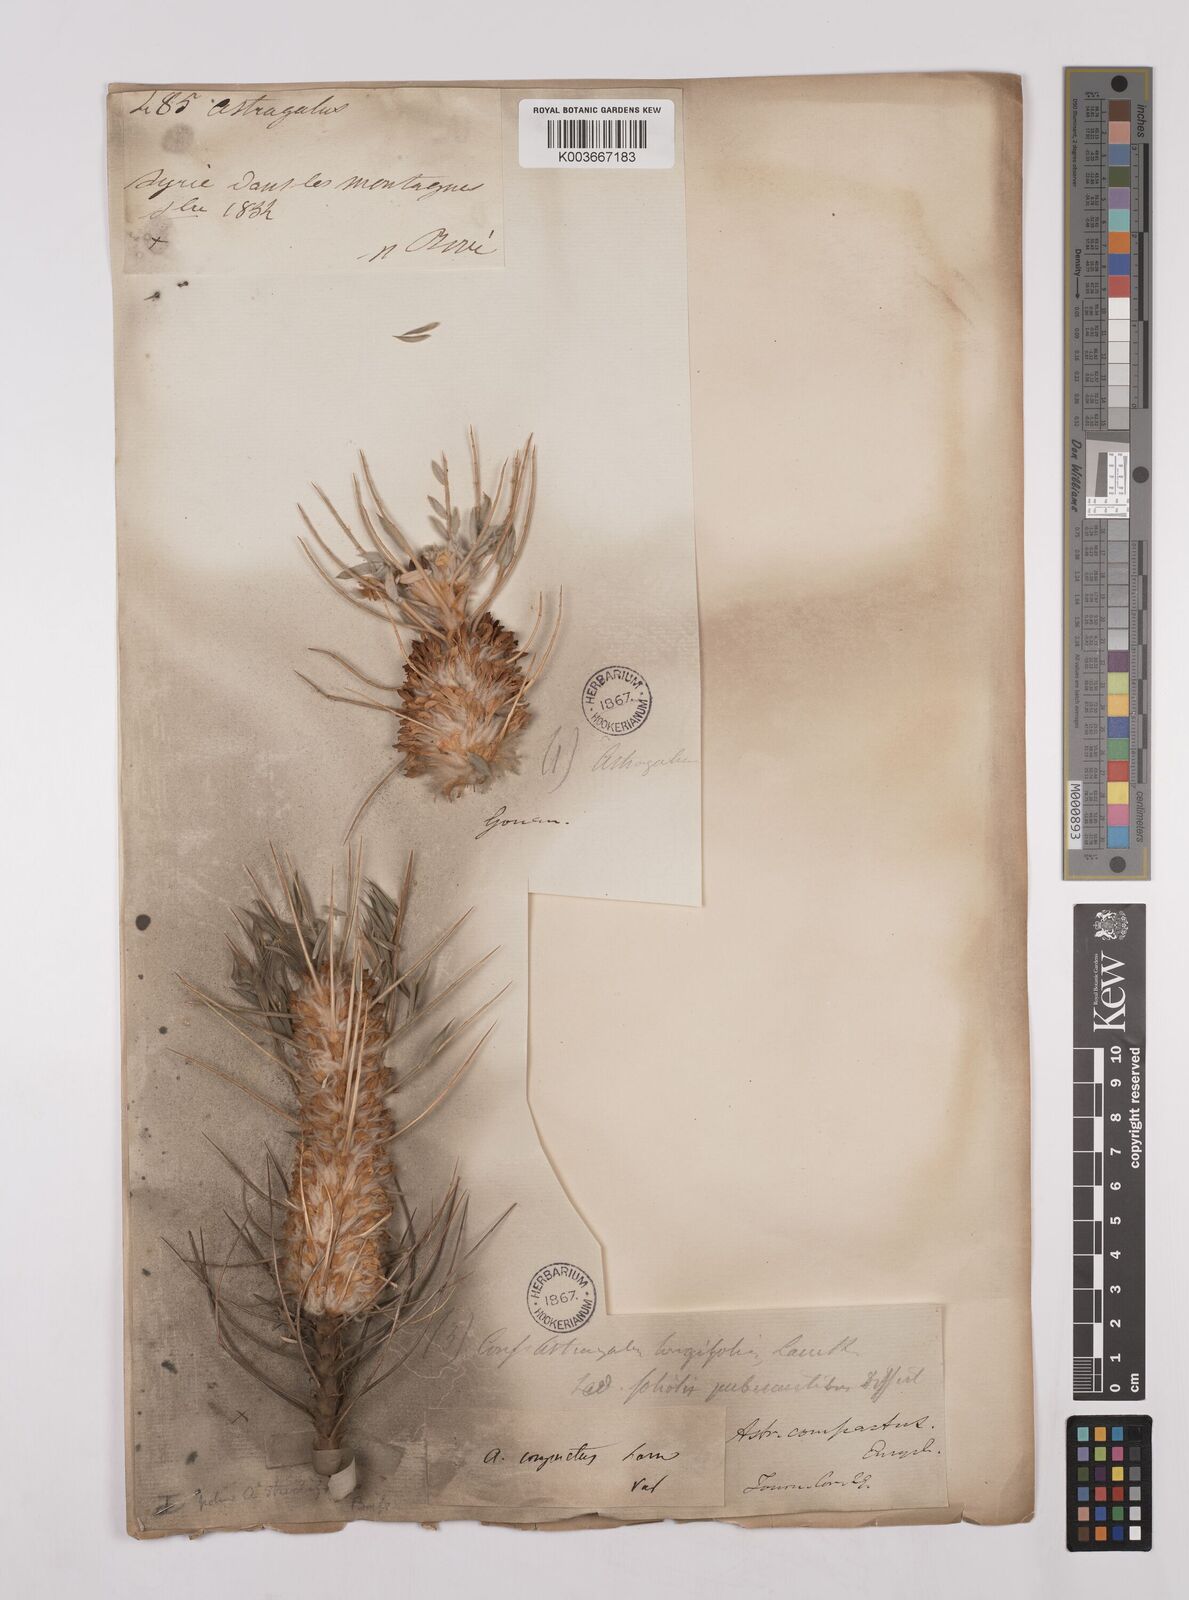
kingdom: Plantae
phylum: Tracheophyta
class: Magnoliopsida
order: Fabales
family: Fabaceae
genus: Astragalus
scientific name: Astragalus compactus
